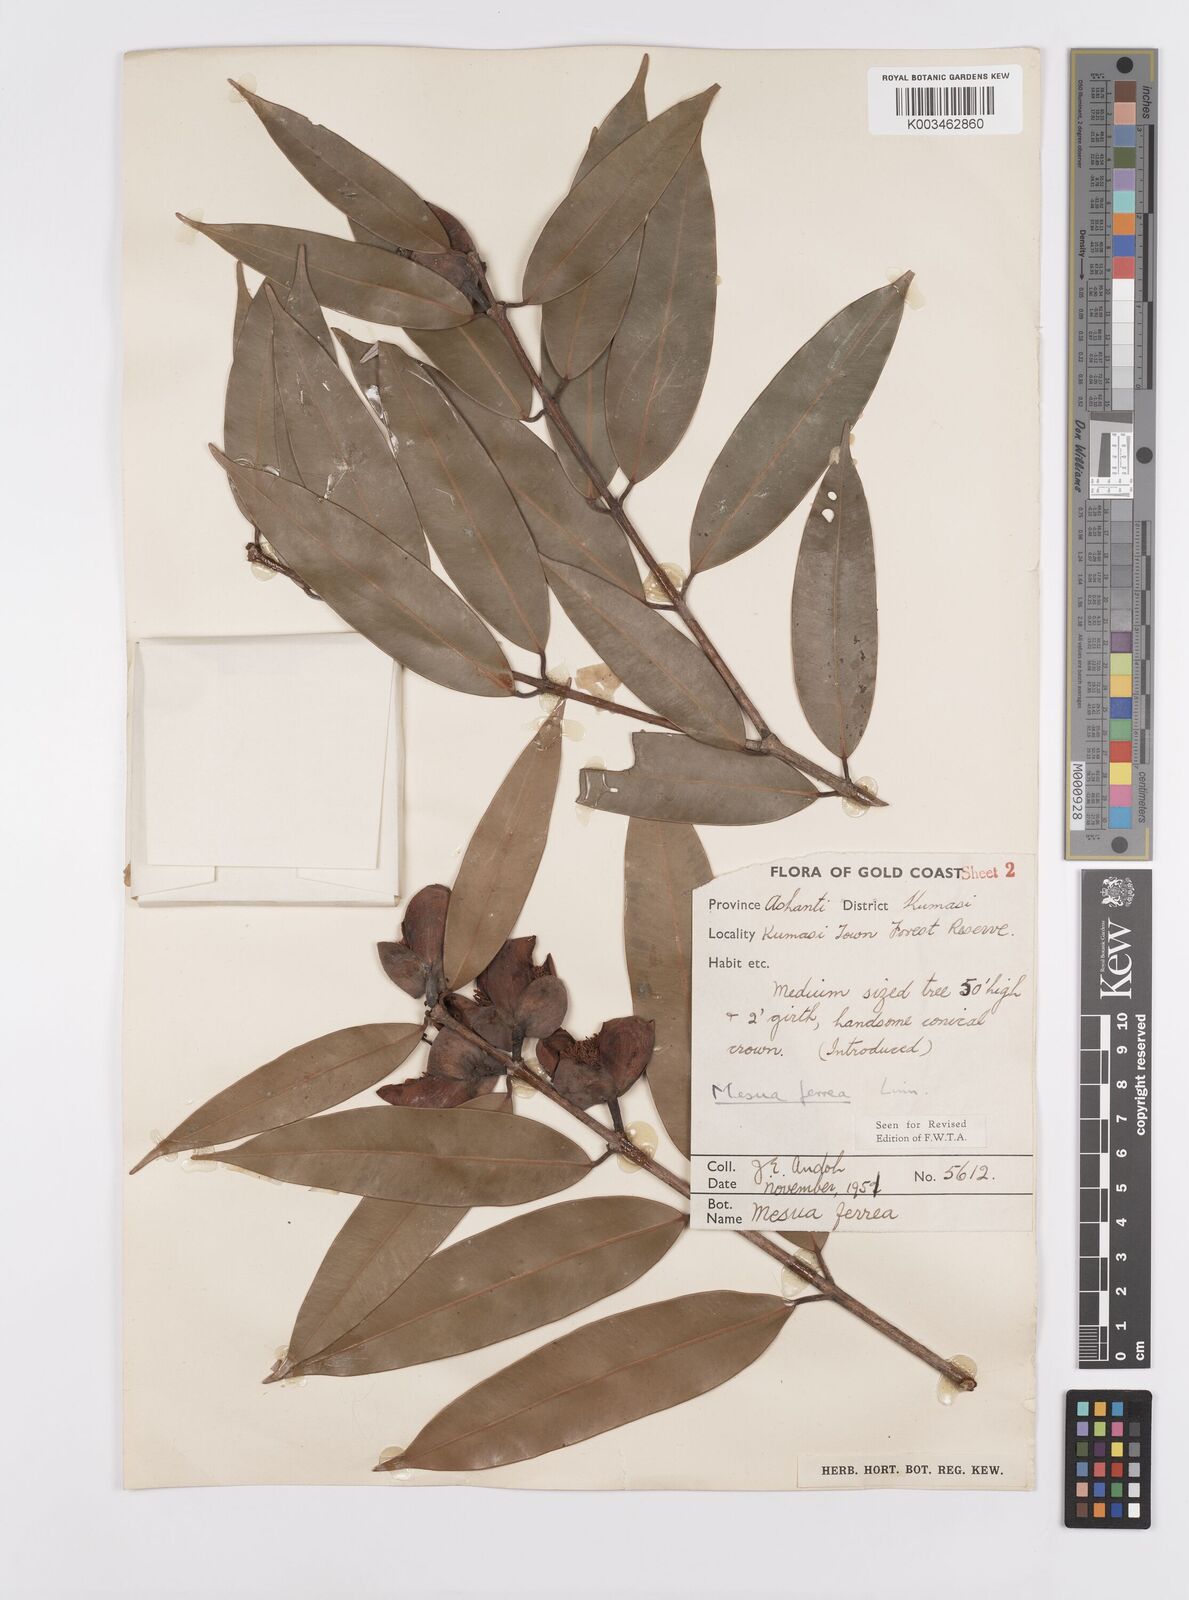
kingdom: Plantae
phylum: Tracheophyta
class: Magnoliopsida
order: Malpighiales
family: Calophyllaceae
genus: Mesua
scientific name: Mesua ferrea
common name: Mesua
